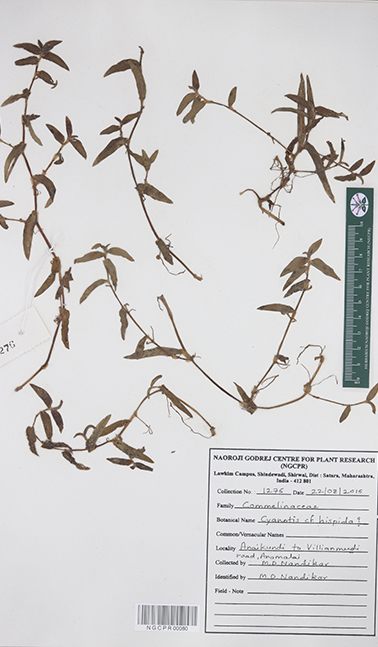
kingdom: Plantae
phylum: Tracheophyta
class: Liliopsida
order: Commelinales
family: Commelinaceae
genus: Cyanotis
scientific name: Cyanotis burmanniana
